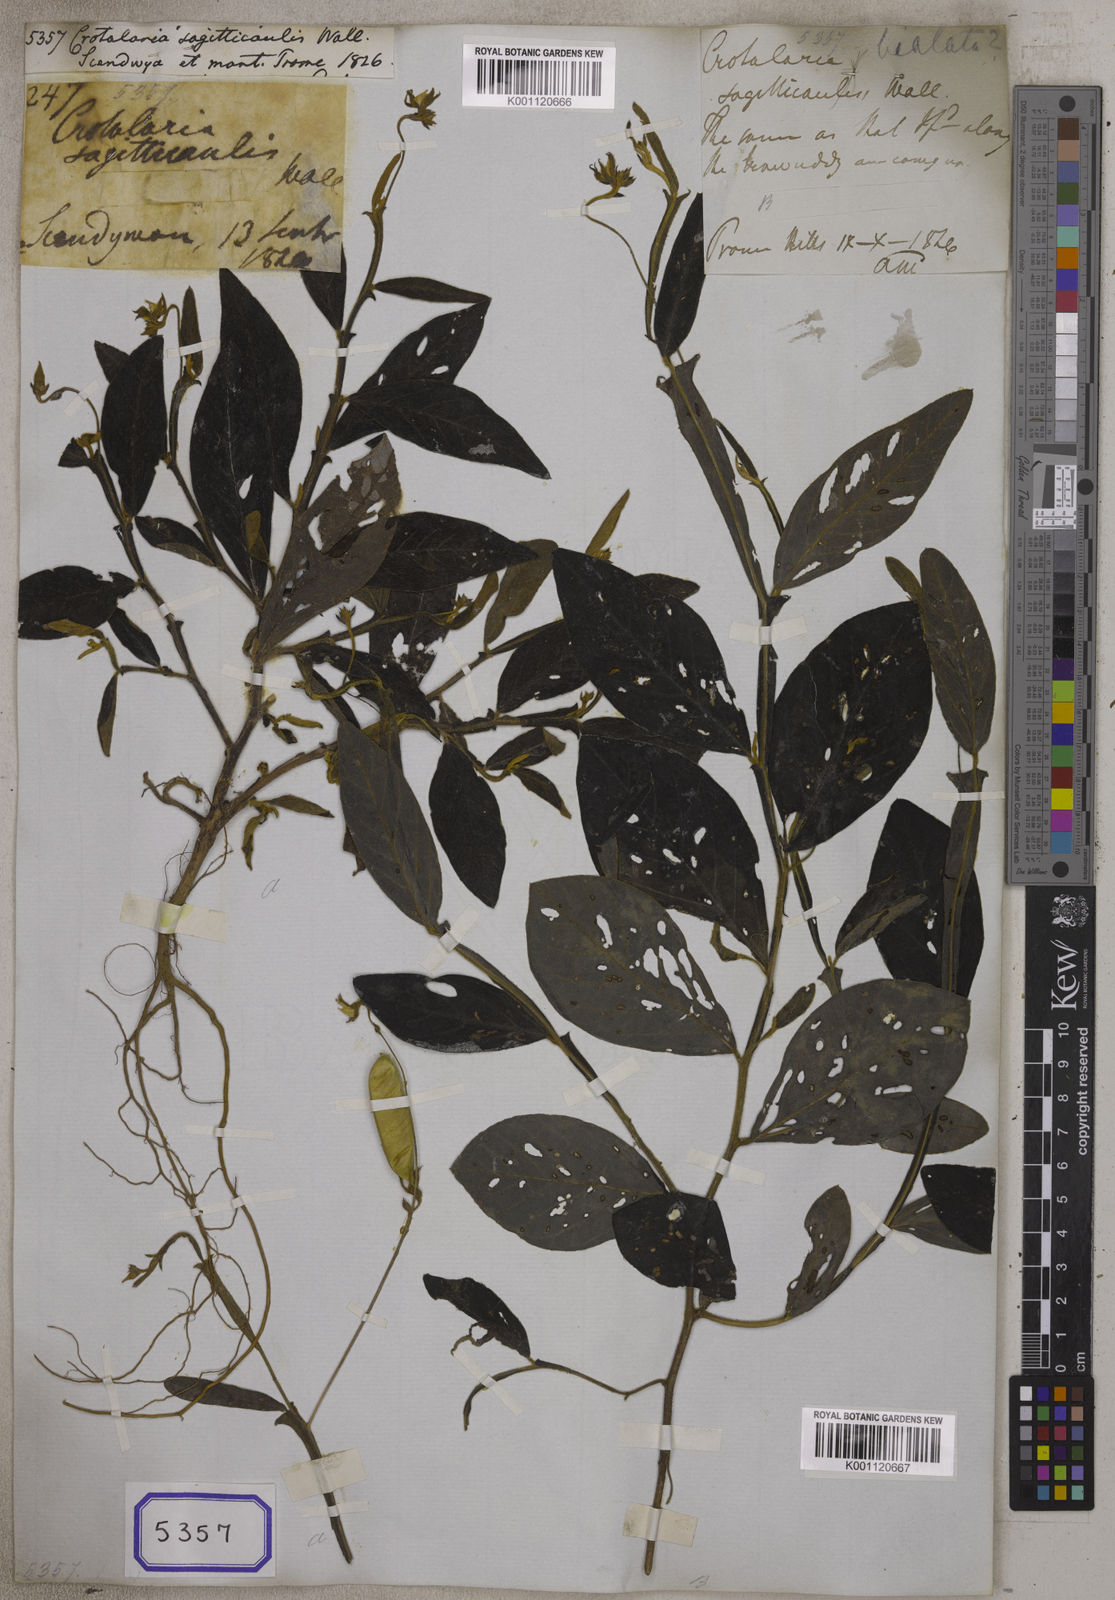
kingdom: Plantae
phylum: Tracheophyta
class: Magnoliopsida
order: Fabales
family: Fabaceae
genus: Crotalaria
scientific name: Crotalaria alata
